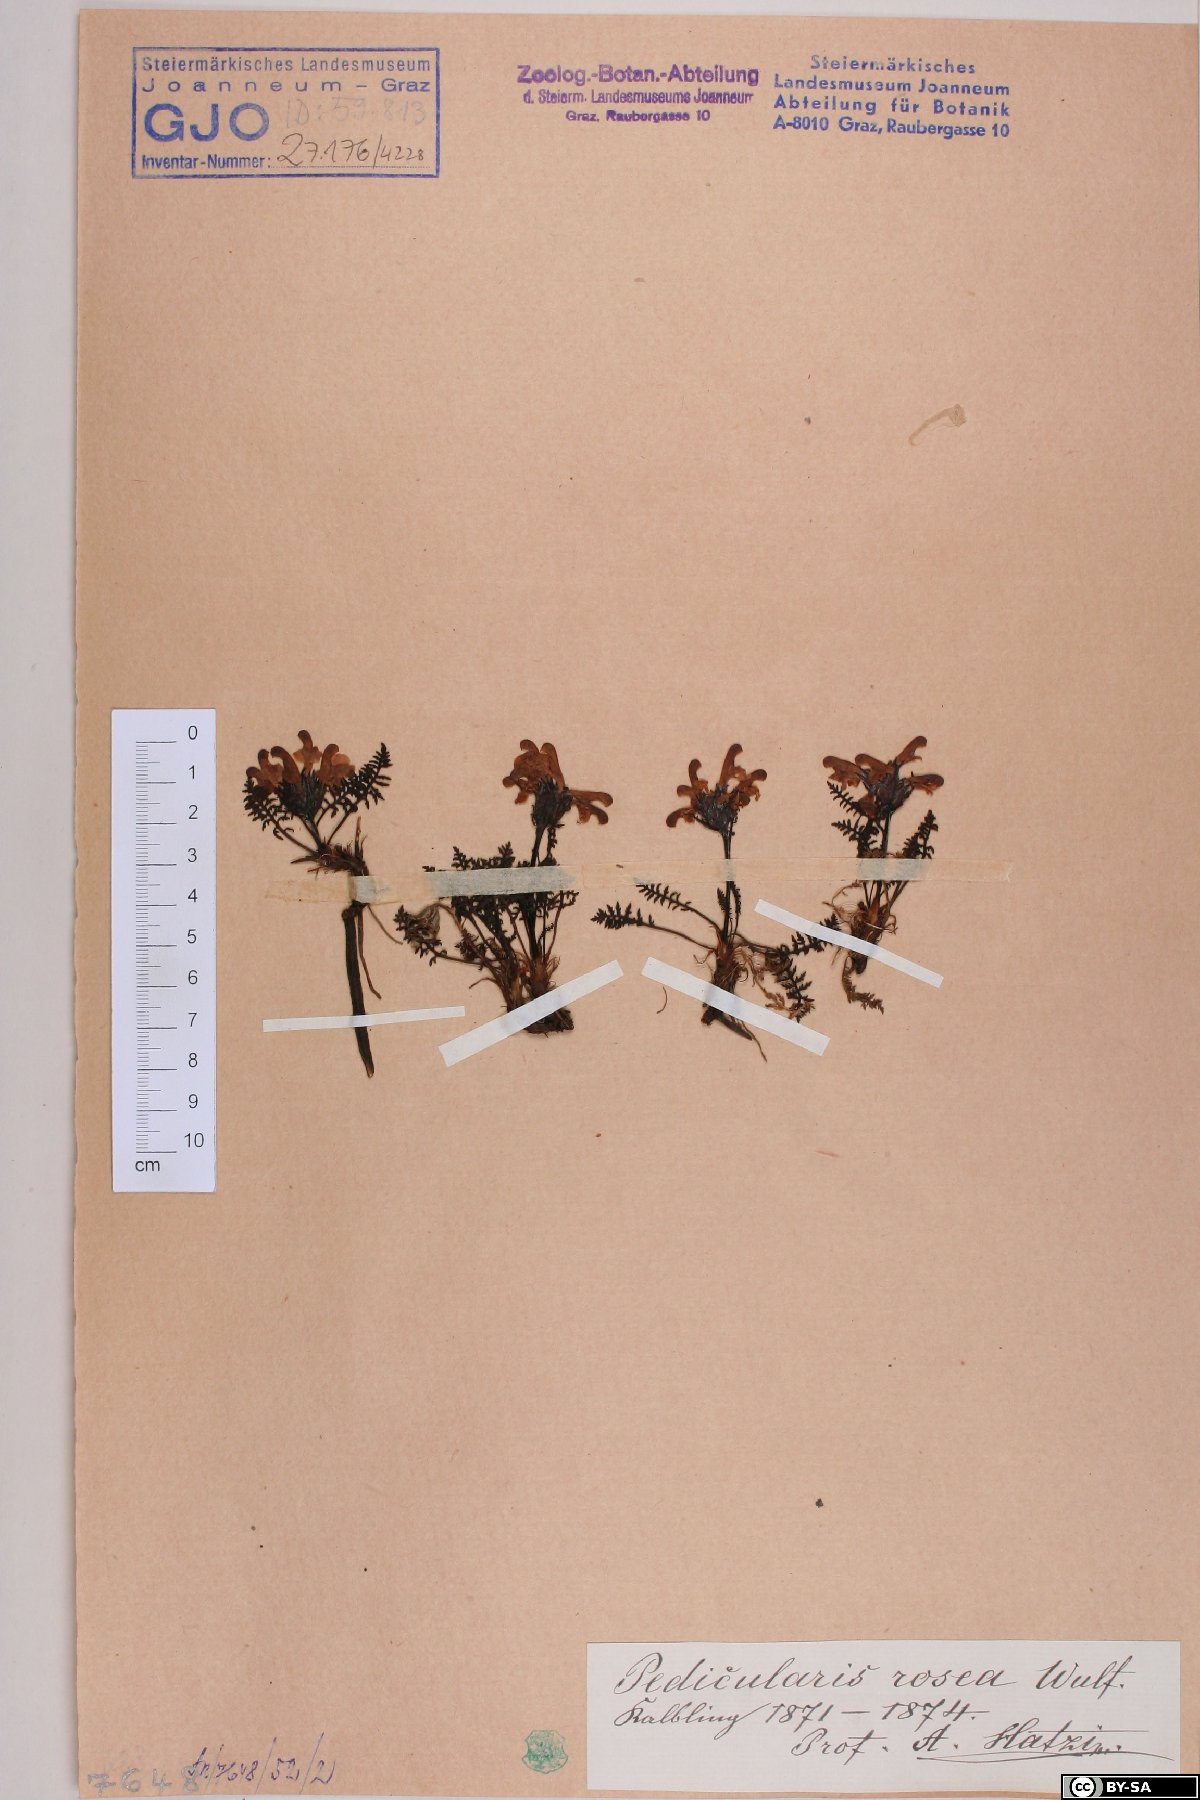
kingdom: Plantae
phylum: Tracheophyta
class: Magnoliopsida
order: Lamiales
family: Orobanchaceae
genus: Pedicularis
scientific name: Pedicularis rosea
